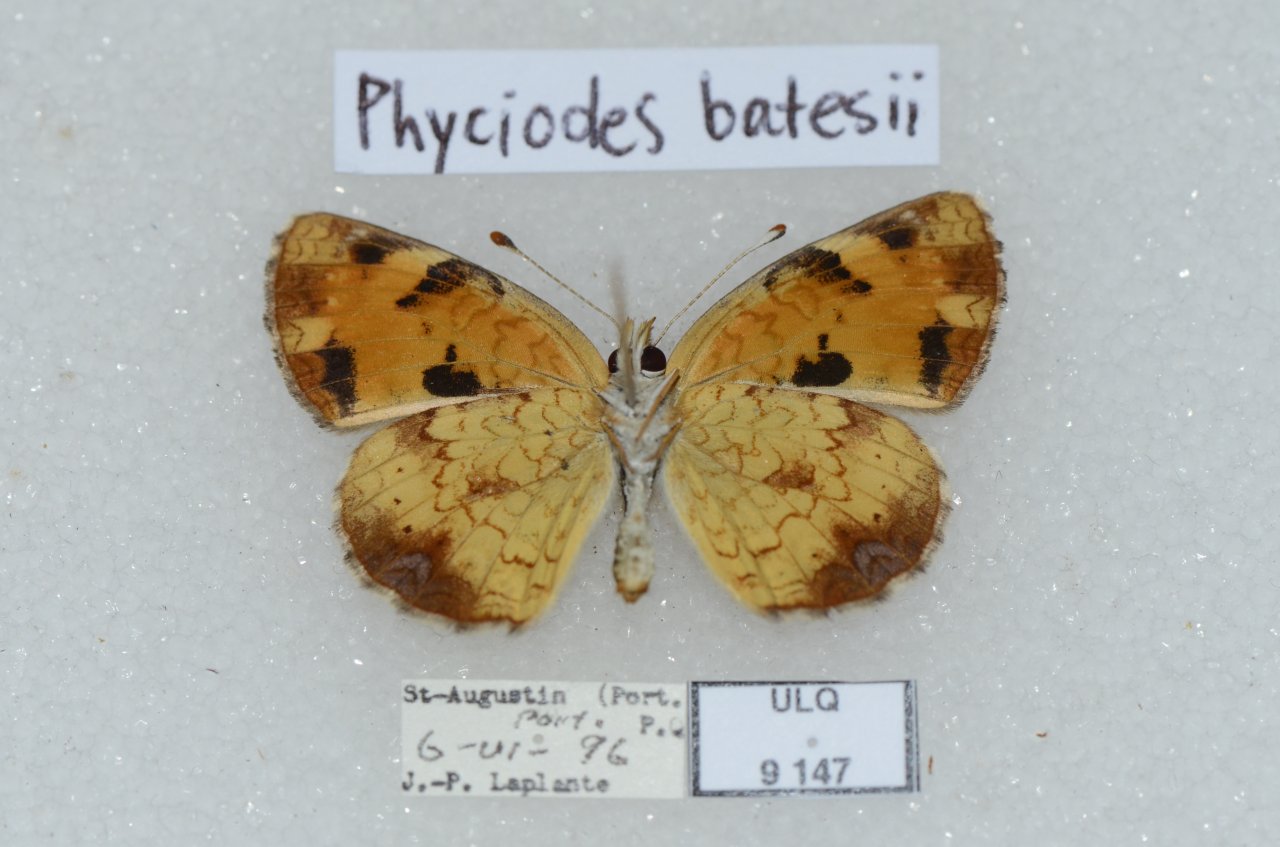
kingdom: Animalia
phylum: Arthropoda
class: Insecta
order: Lepidoptera
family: Nymphalidae
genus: Phyciodes
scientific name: Phyciodes tharos
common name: Northern Crescent
